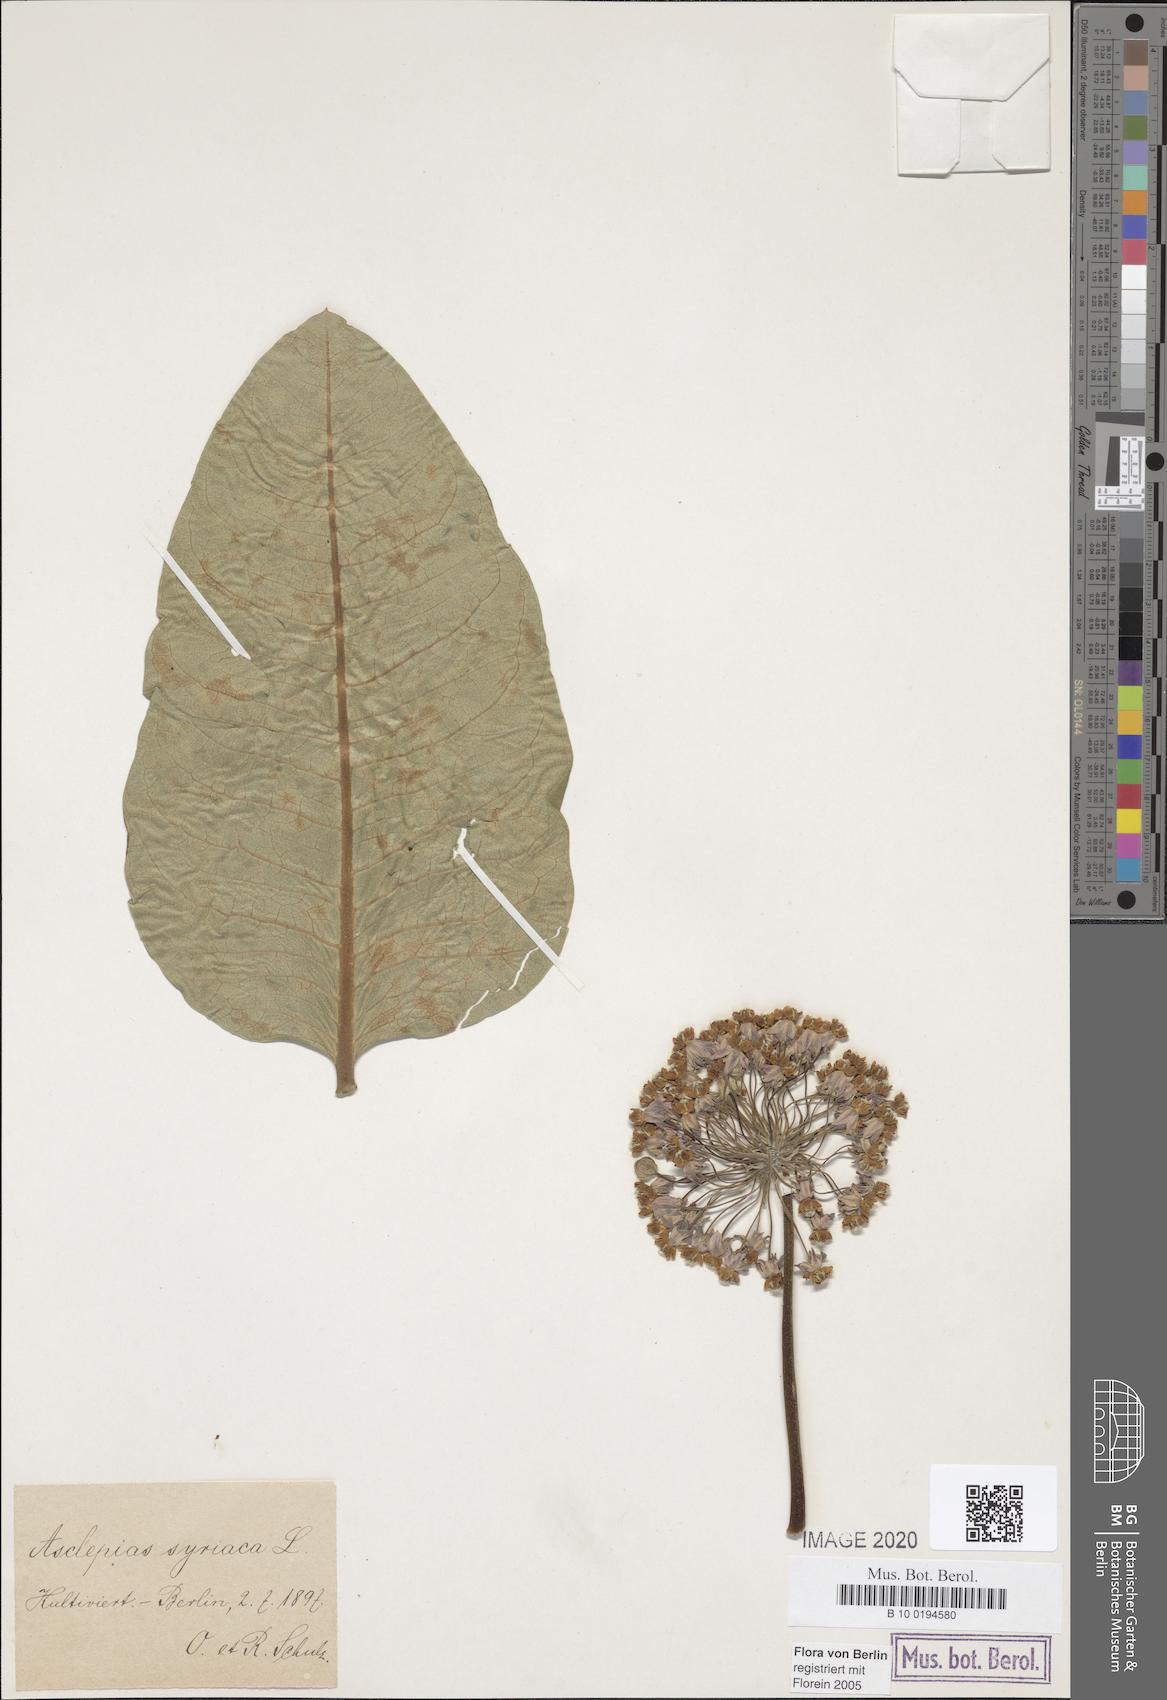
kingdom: Plantae
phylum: Tracheophyta
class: Magnoliopsida
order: Gentianales
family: Apocynaceae
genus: Asclepias
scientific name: Asclepias syriaca
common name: Common milkweed
